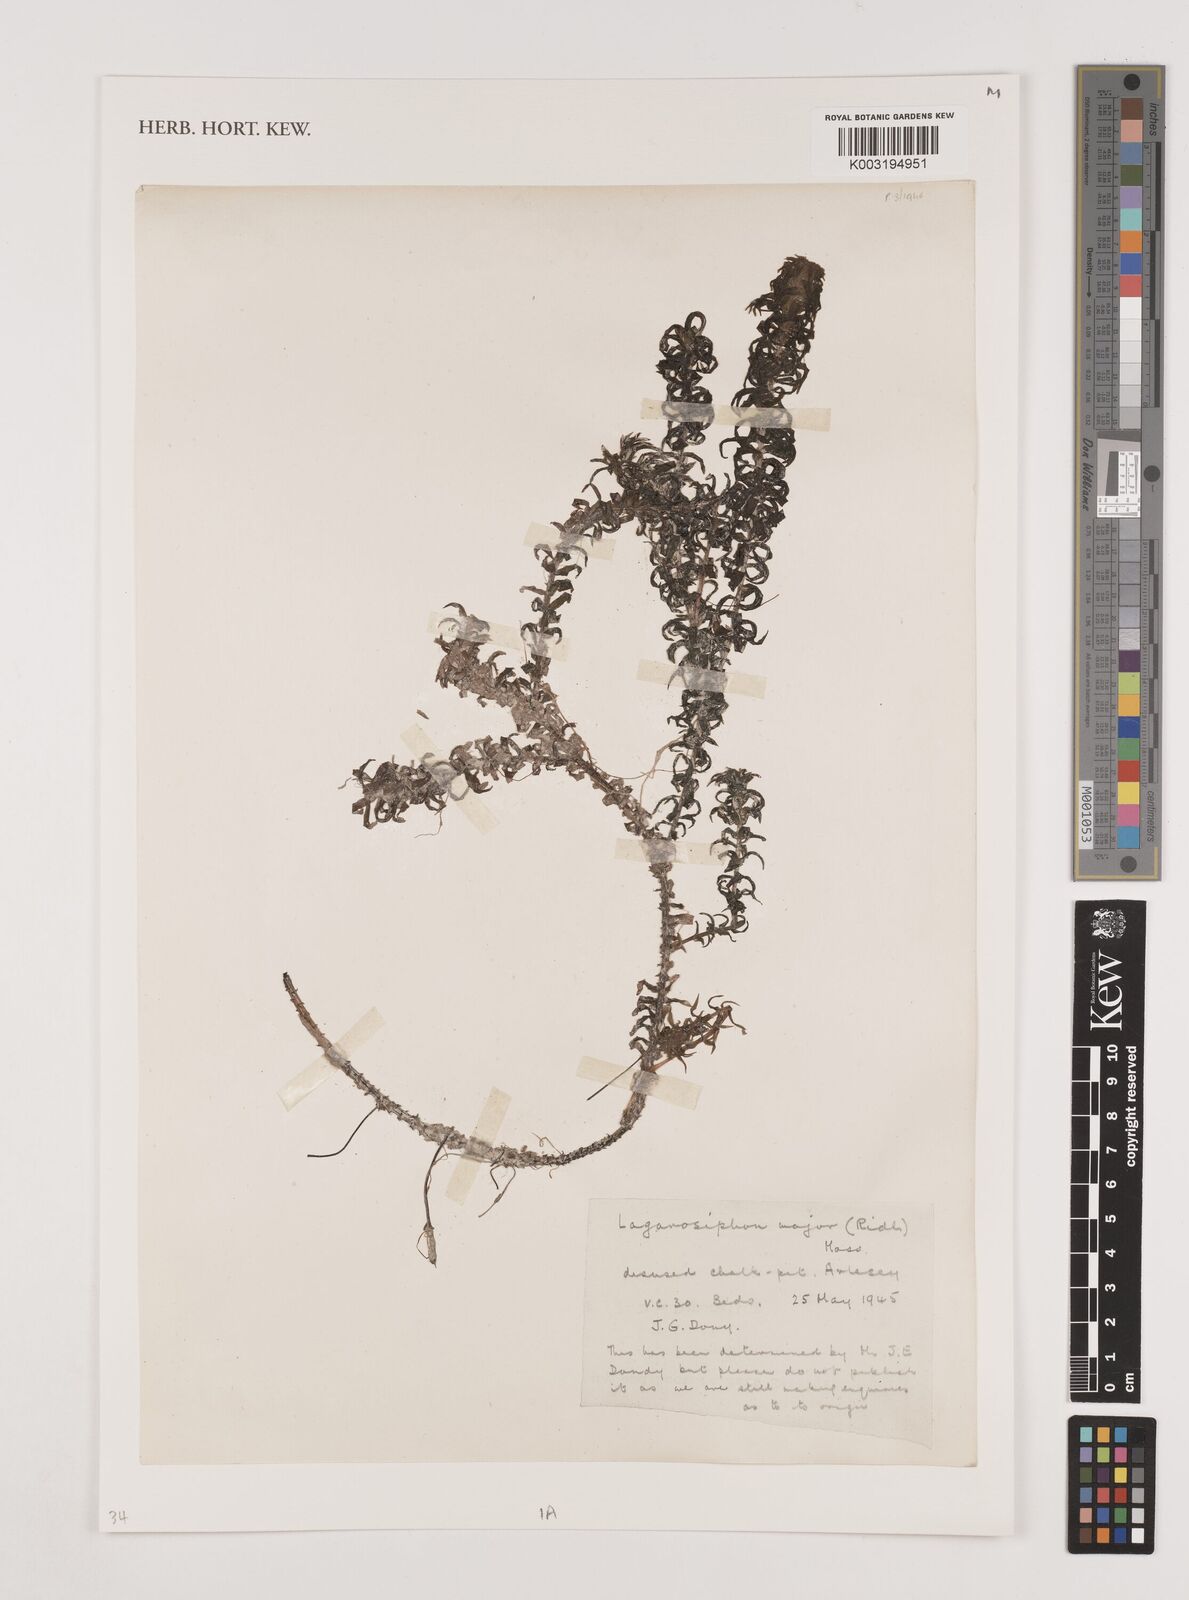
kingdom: Plantae
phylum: Tracheophyta
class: Liliopsida
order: Alismatales
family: Hydrocharitaceae
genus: Lagarosiphon
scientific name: Lagarosiphon major
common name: Curly waterweed
